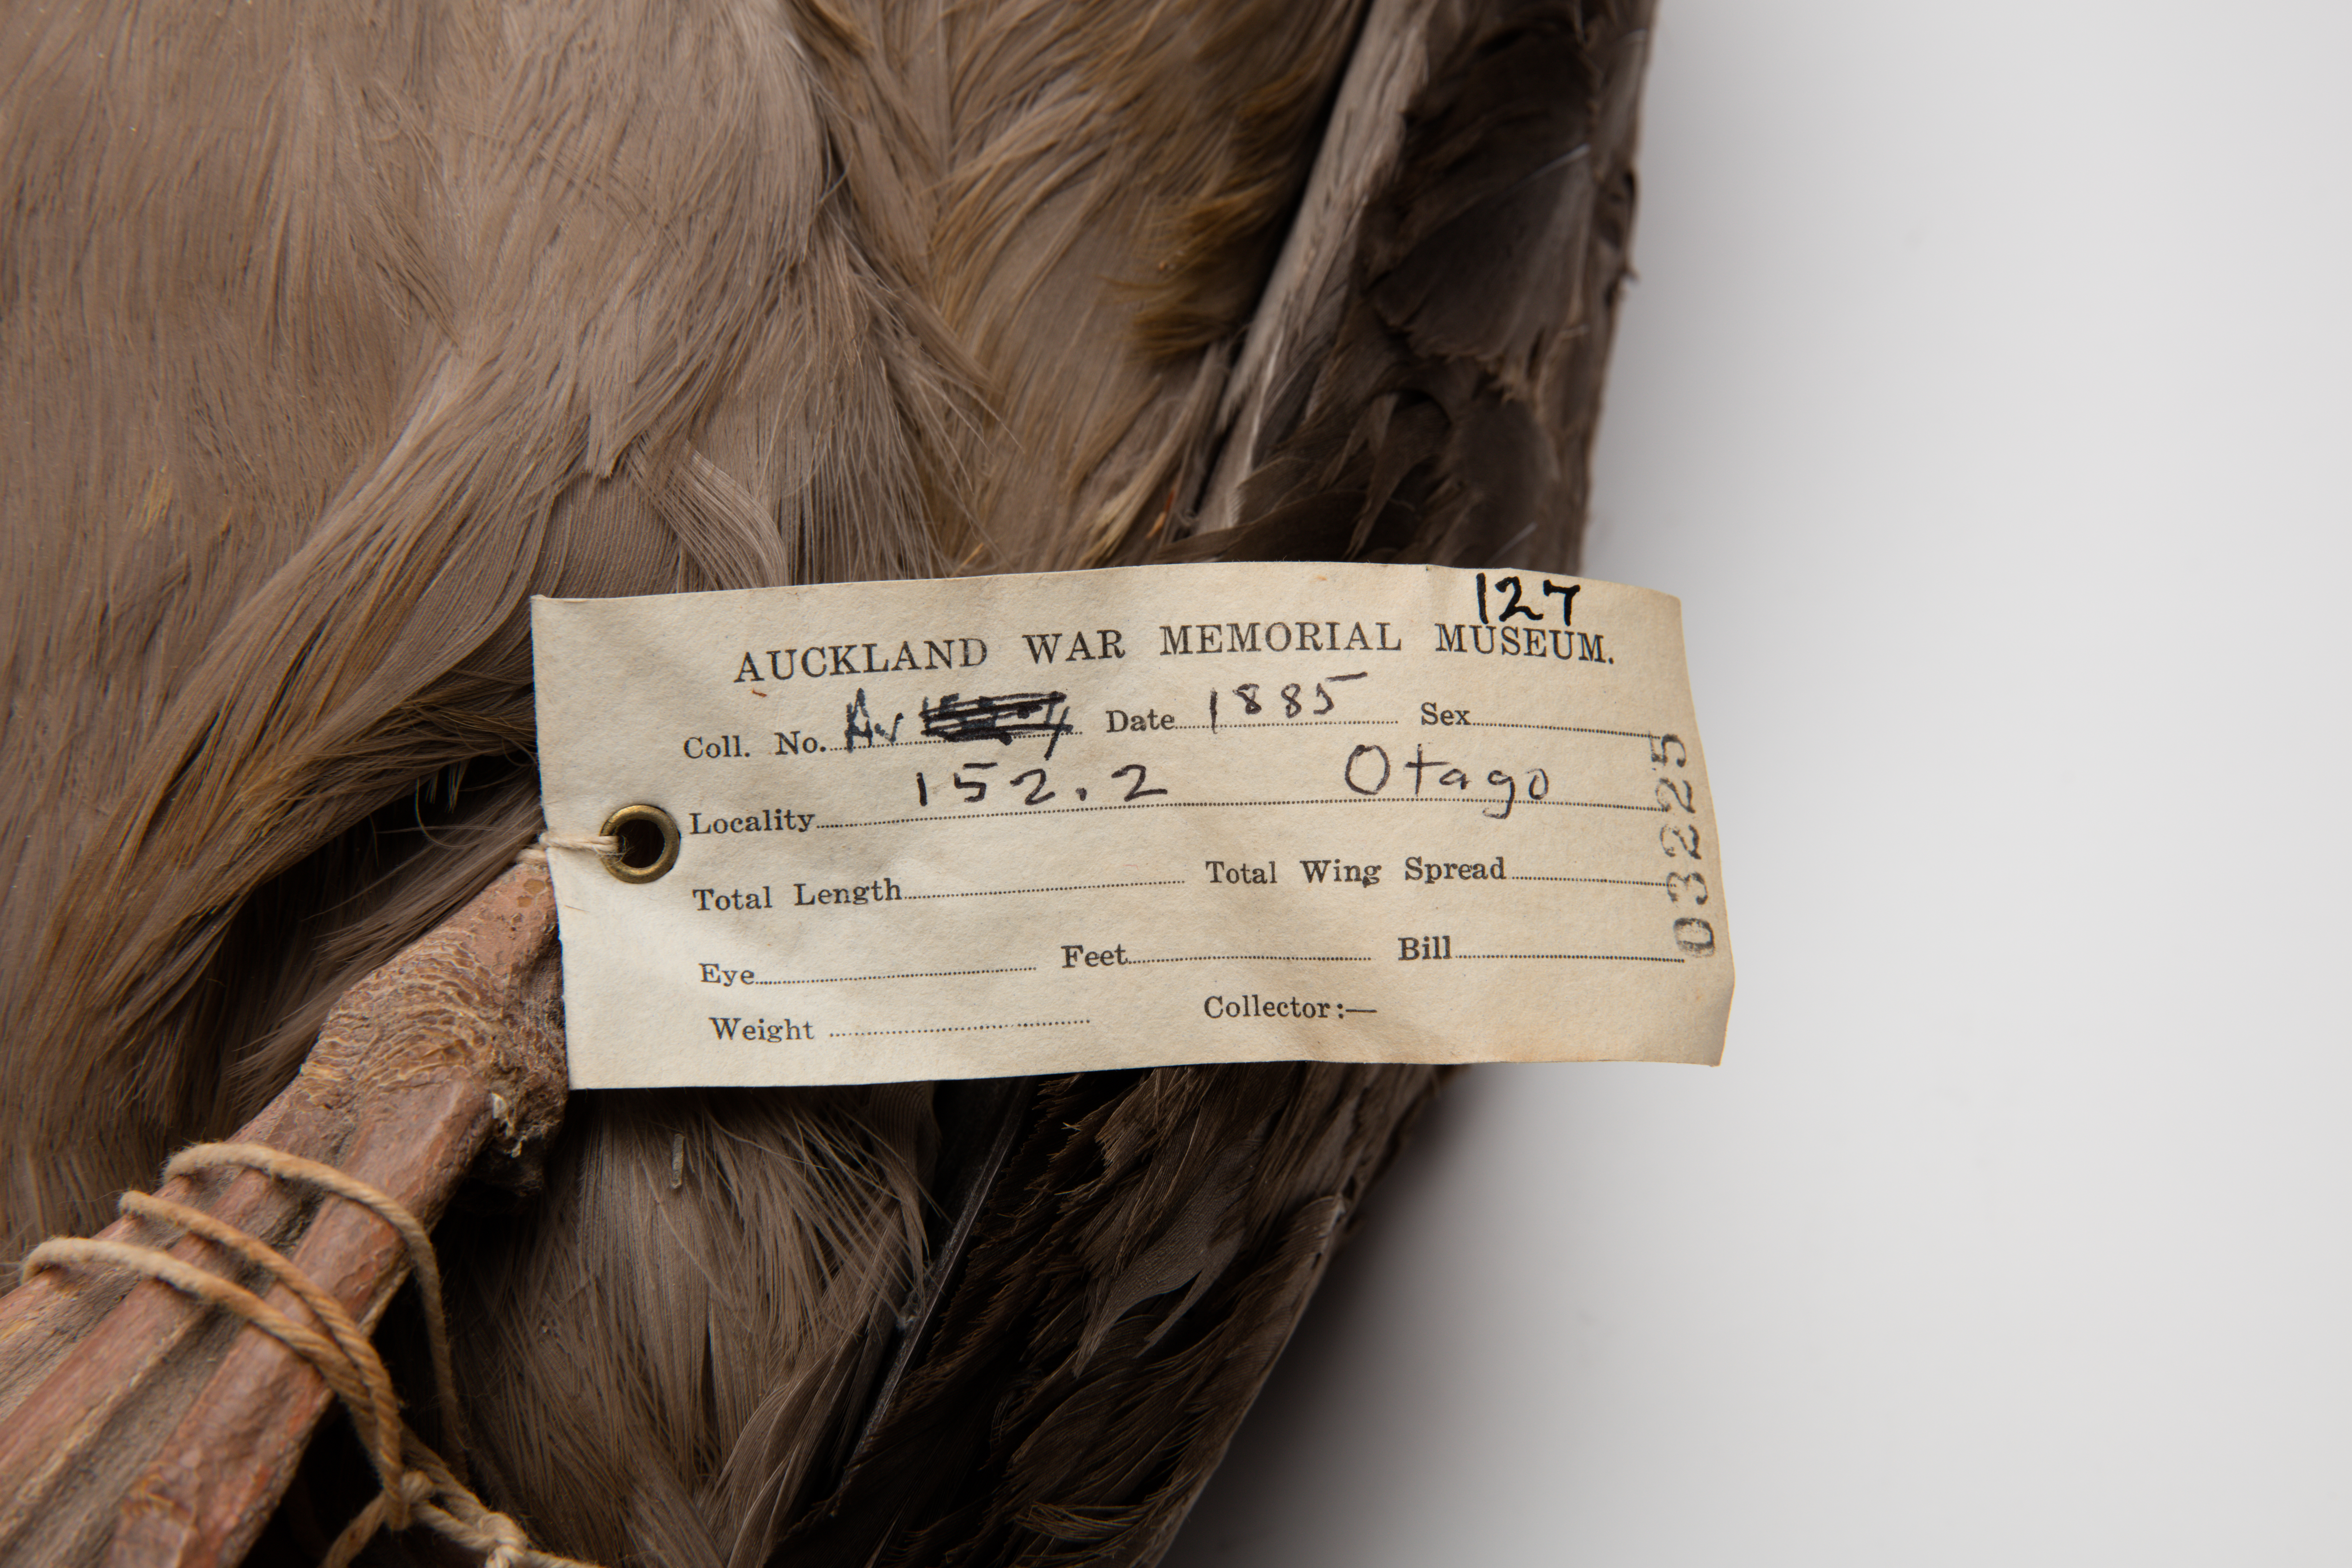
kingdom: Animalia
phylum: Chordata
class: Aves
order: Procellariiformes
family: Diomedeidae
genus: Phoebetria
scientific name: Phoebetria palpebrata
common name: Light-mantled albatross
